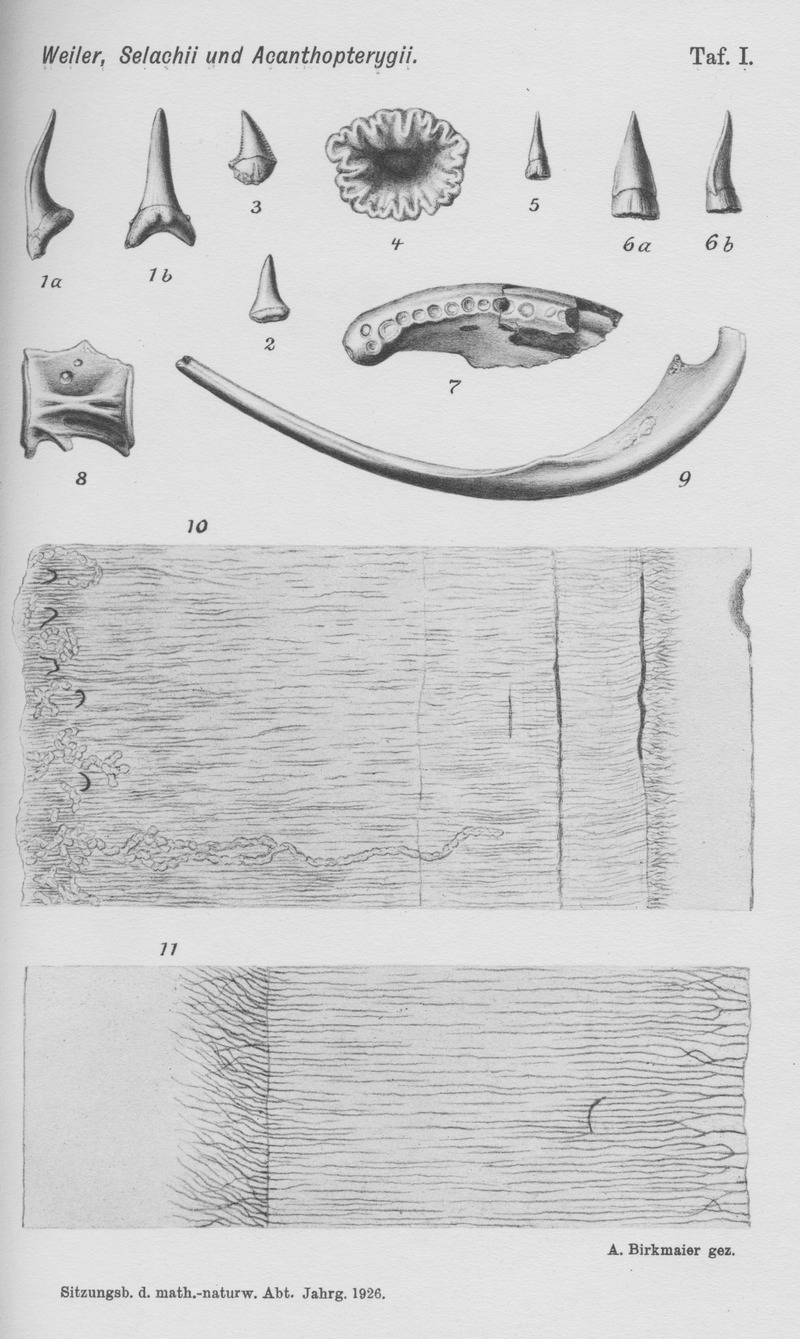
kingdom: Animalia
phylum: Chordata
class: Mammalia
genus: Hydrocyon
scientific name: Hydrocyon
